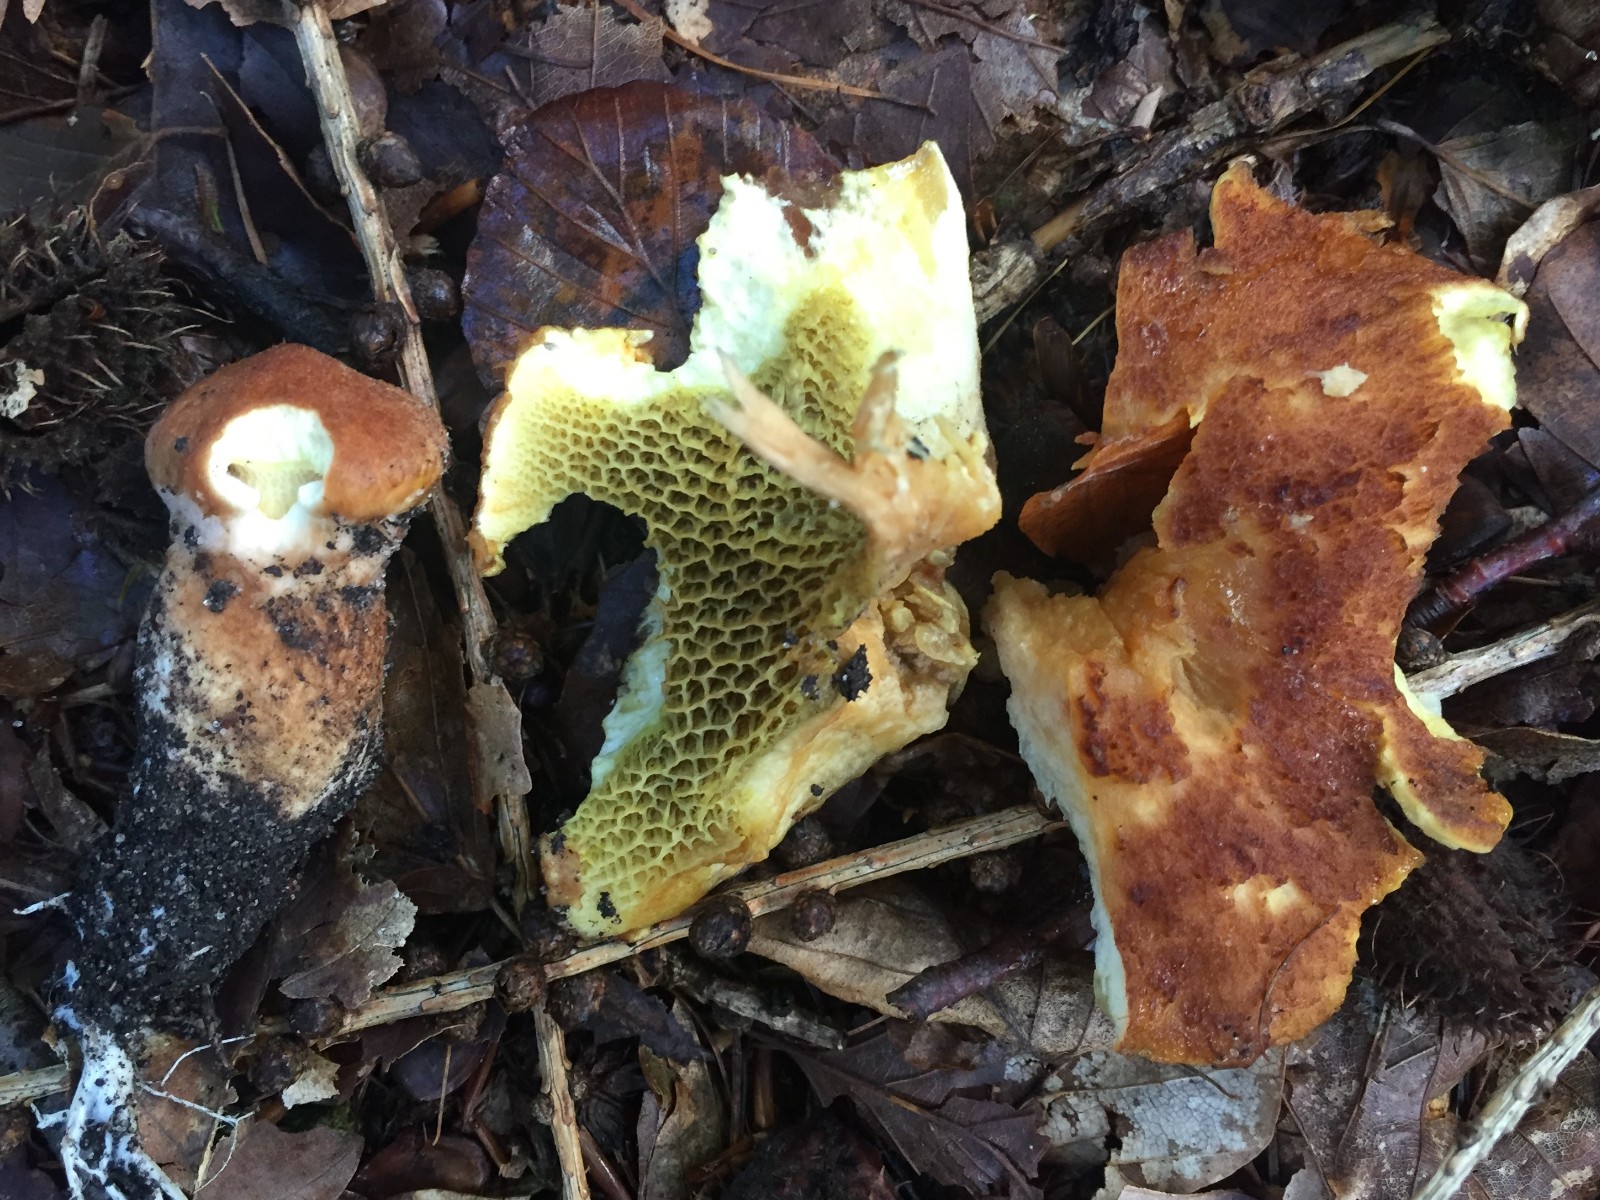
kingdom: Fungi
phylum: Basidiomycota
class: Agaricomycetes
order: Boletales
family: Suillaceae
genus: Suillus
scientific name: Suillus cavipes
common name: hulstokket slimrørhat
